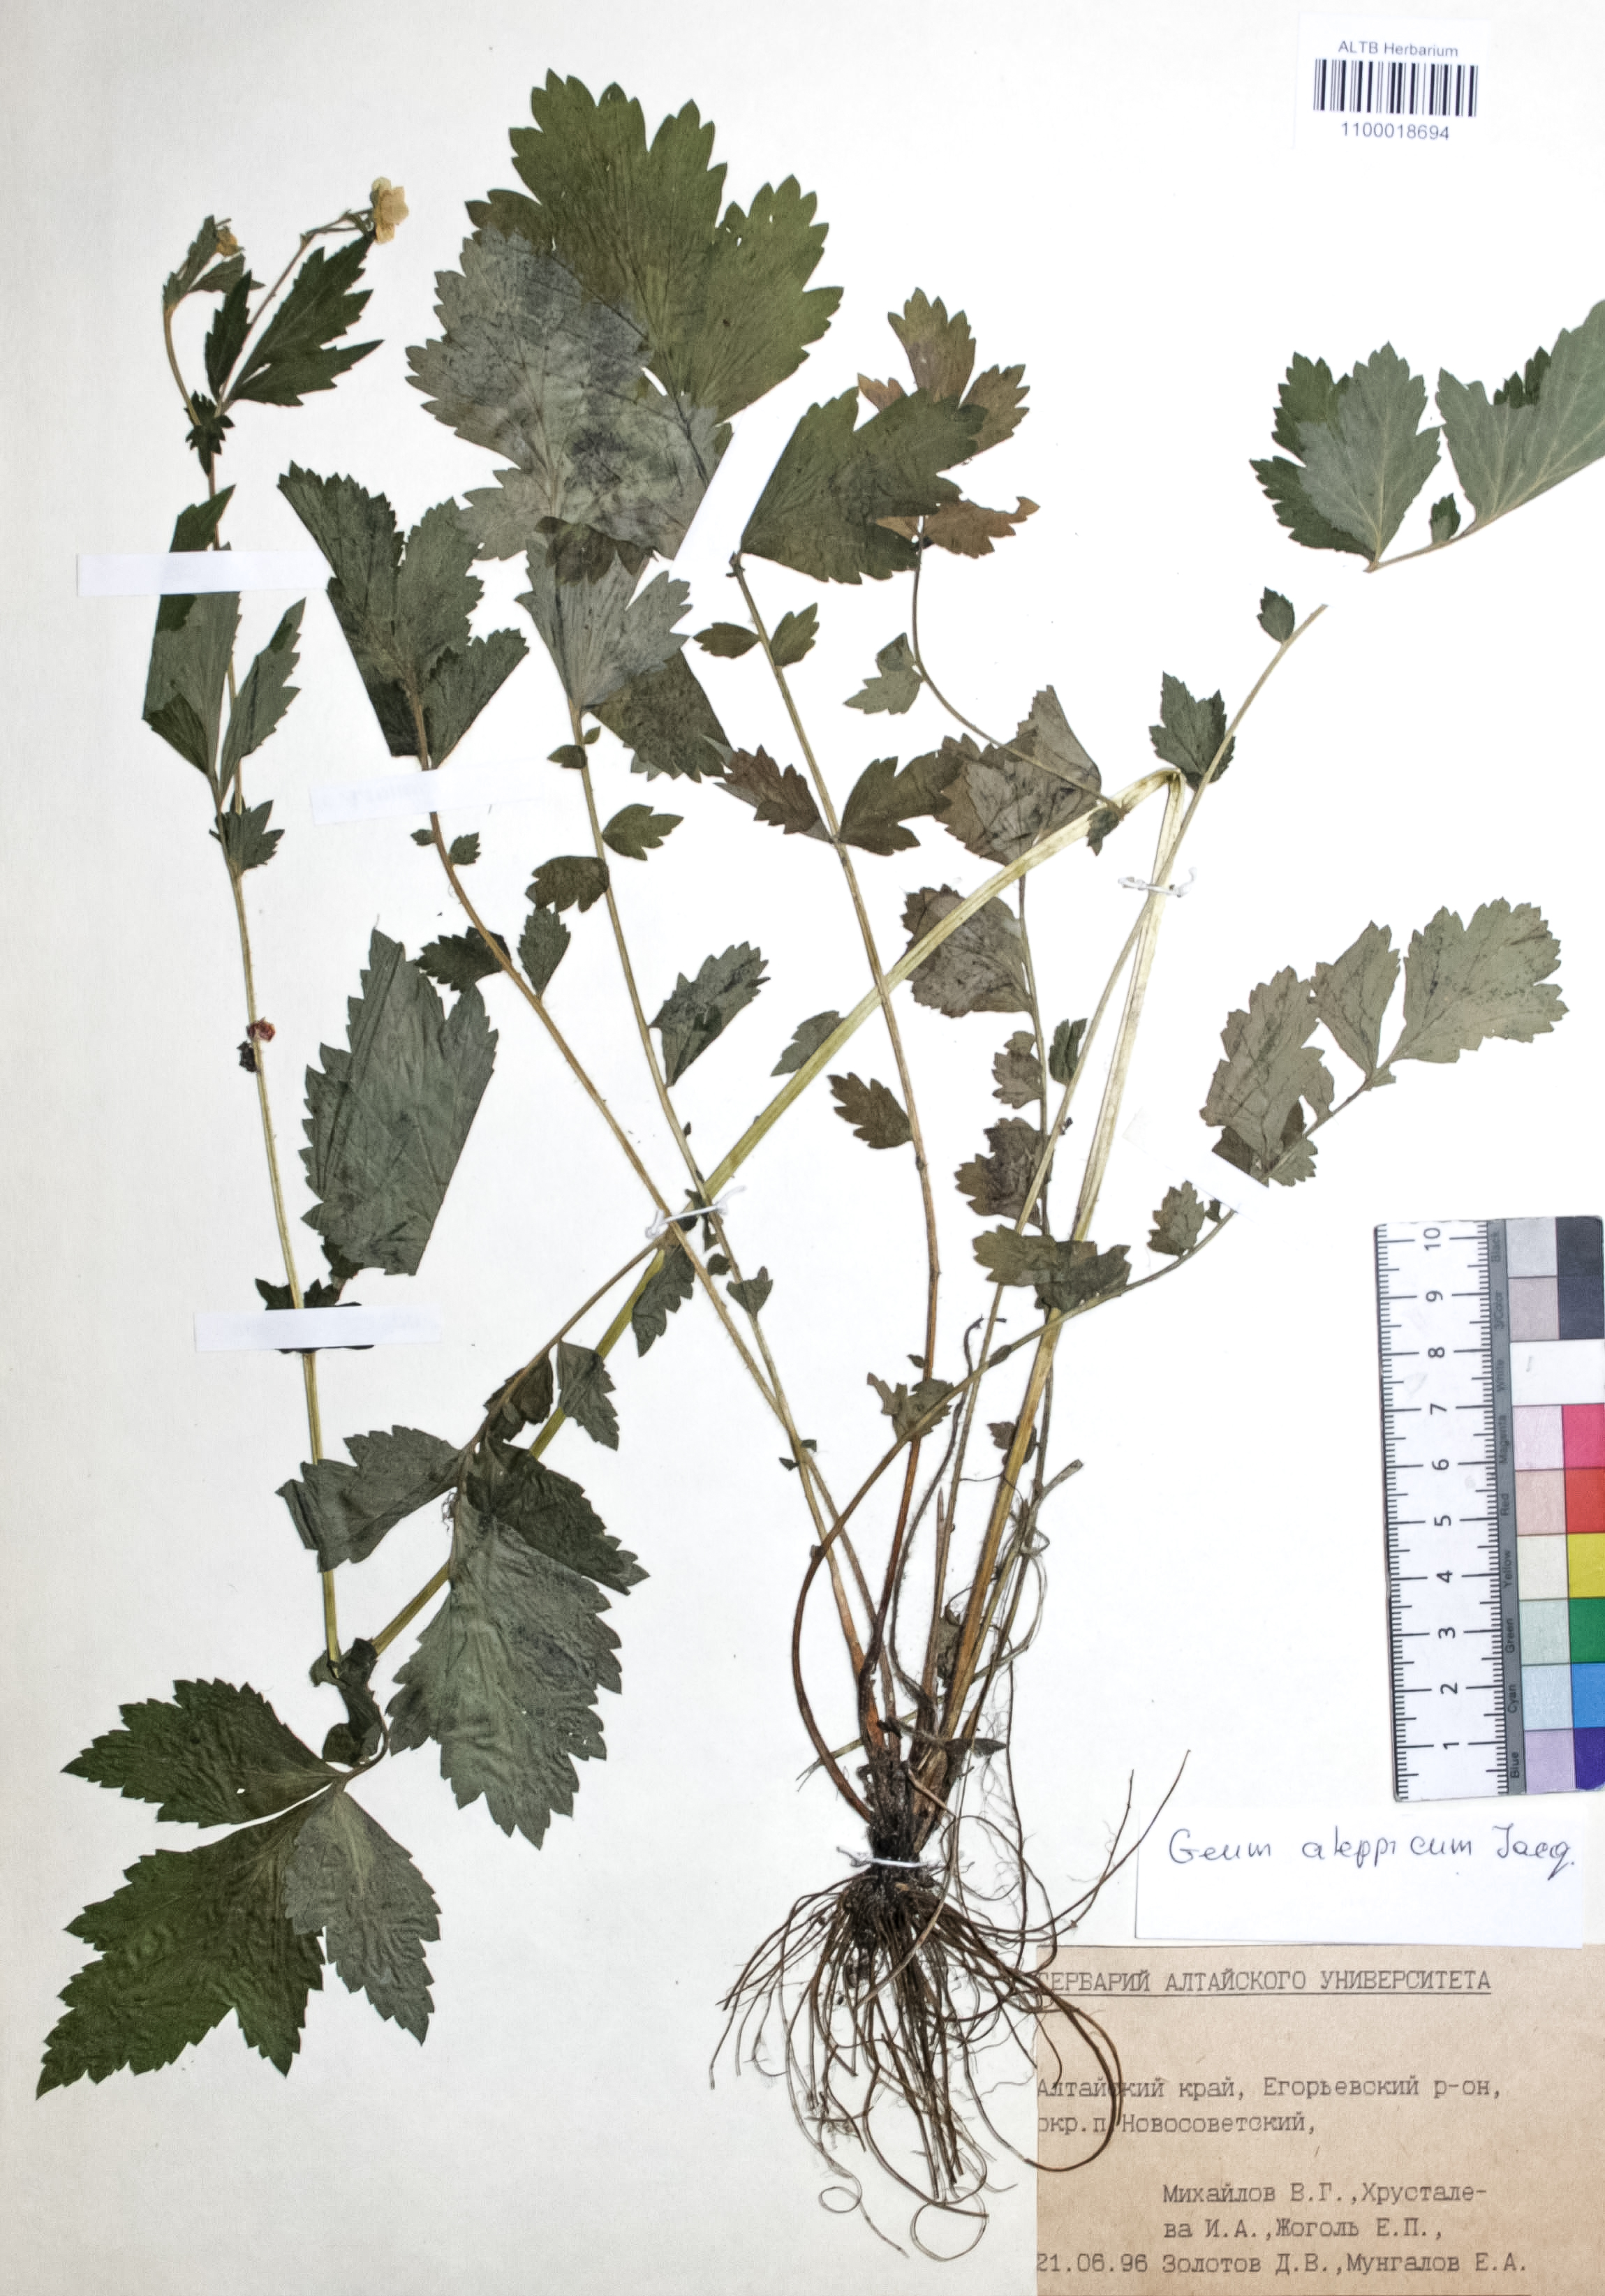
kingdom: Plantae
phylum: Tracheophyta
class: Magnoliopsida
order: Rosales
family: Rosaceae
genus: Geum
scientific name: Geum aleppicum
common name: Yellow avens
